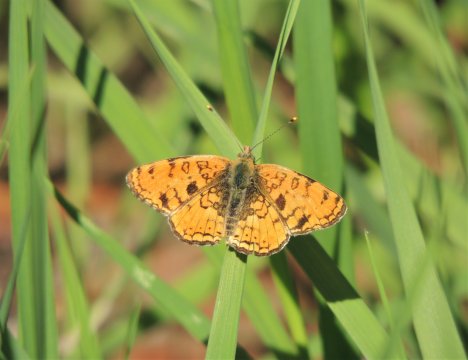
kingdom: Animalia
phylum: Arthropoda
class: Insecta
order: Lepidoptera
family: Nymphalidae
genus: Phyciodes
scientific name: Phyciodes pallida
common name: Pale Crescent
